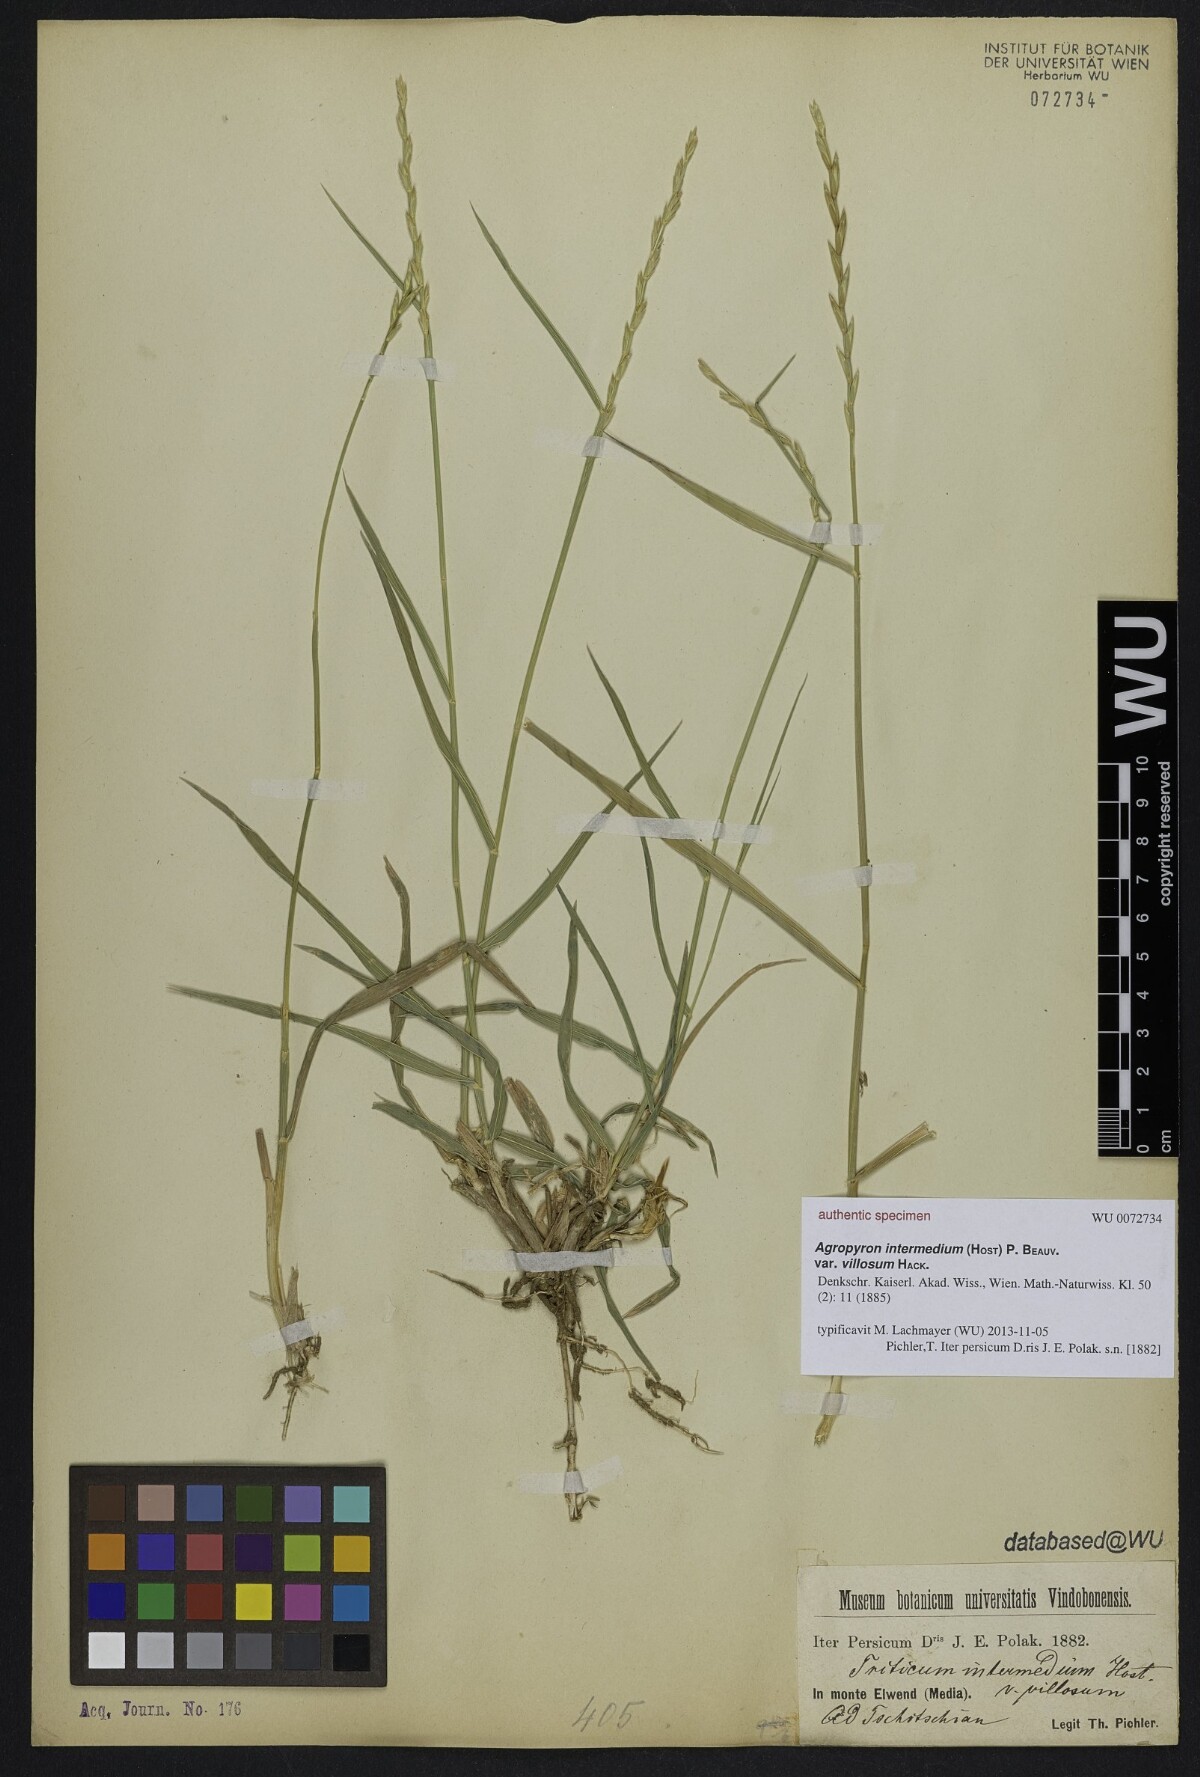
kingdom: Plantae
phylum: Tracheophyta
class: Liliopsida
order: Poales
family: Poaceae
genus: Thinopyrum
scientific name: Thinopyrum intermedium
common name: Intermediate wheatgrass
